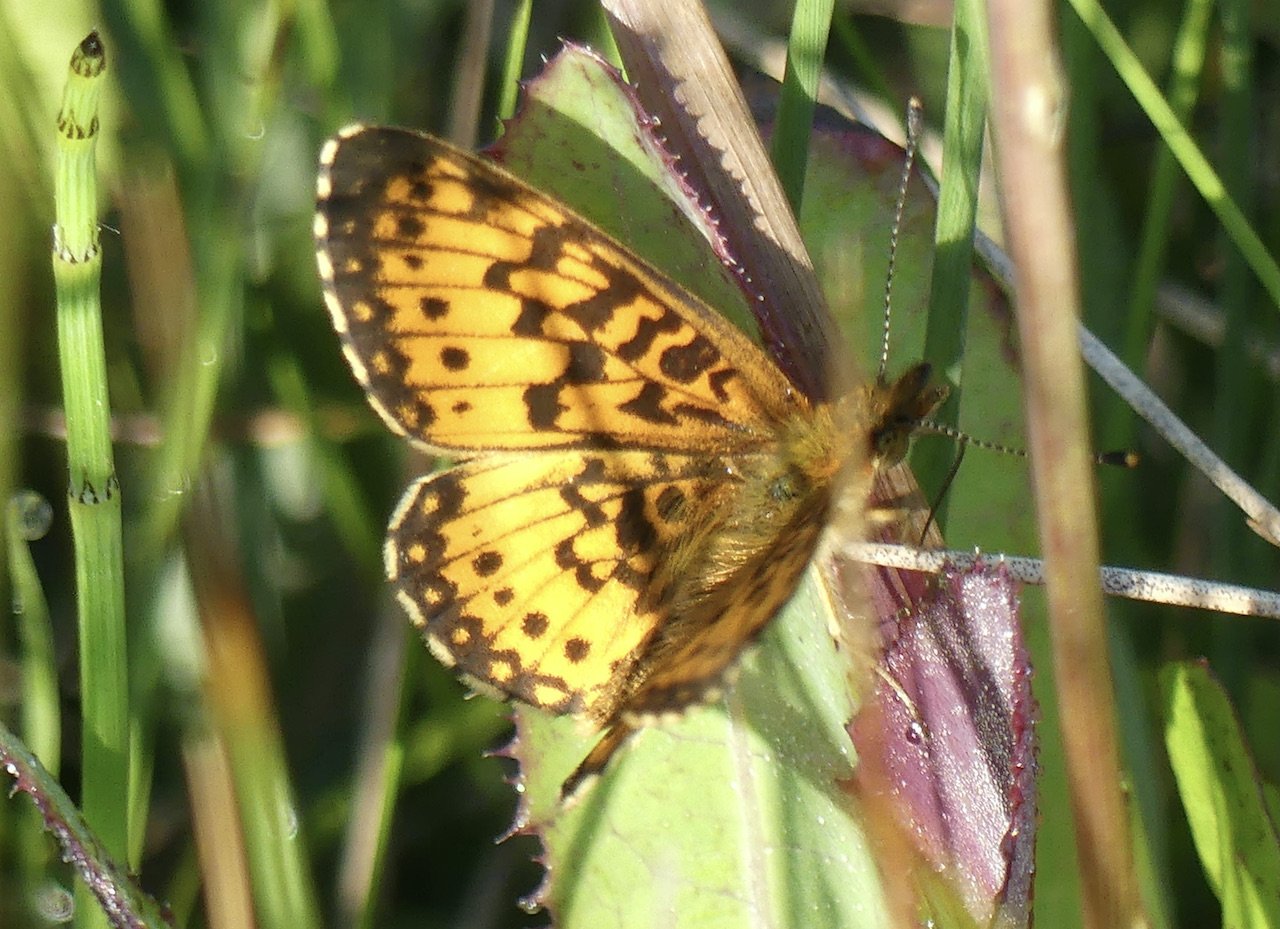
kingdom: Animalia
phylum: Arthropoda
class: Insecta
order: Lepidoptera
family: Nymphalidae
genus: Boloria
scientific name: Boloria selene
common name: Silver-bordered Fritillary
